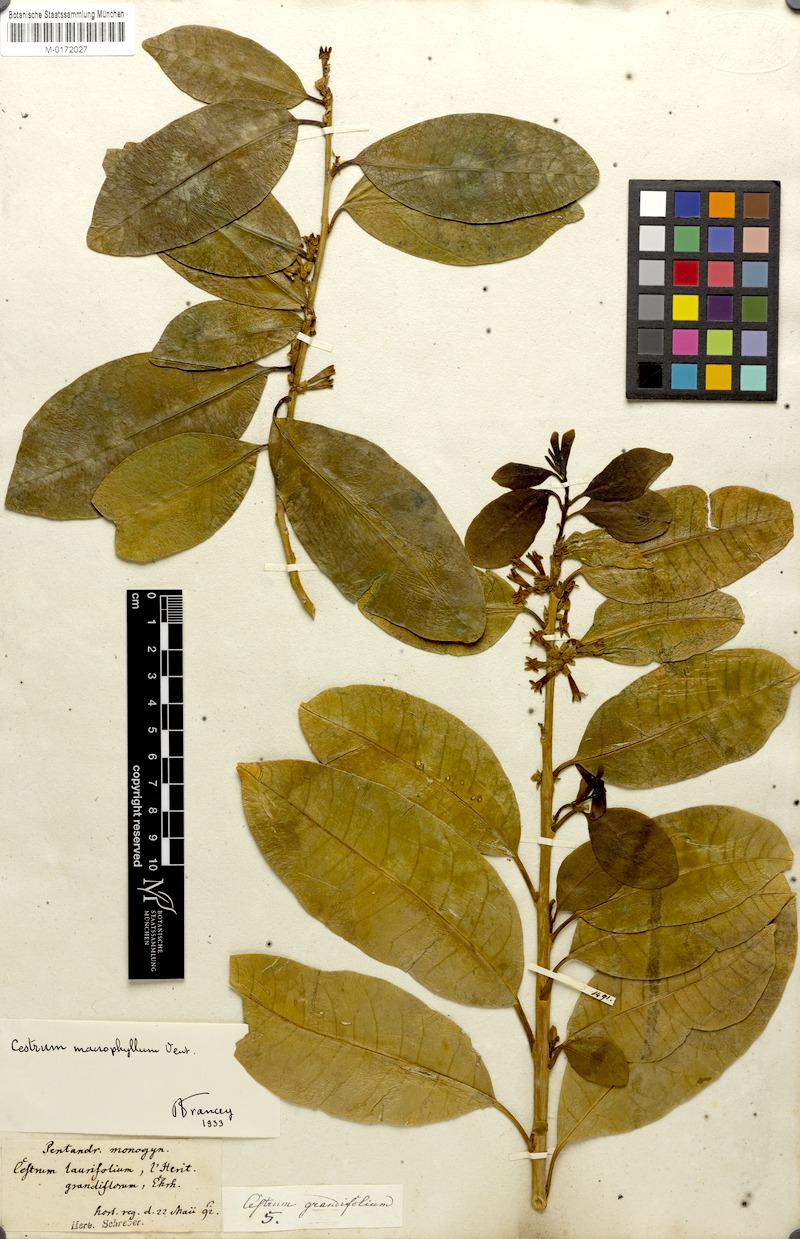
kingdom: Plantae
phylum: Tracheophyta
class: Magnoliopsida
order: Solanales
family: Solanaceae
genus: Cestrum
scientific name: Cestrum macrophyllum
